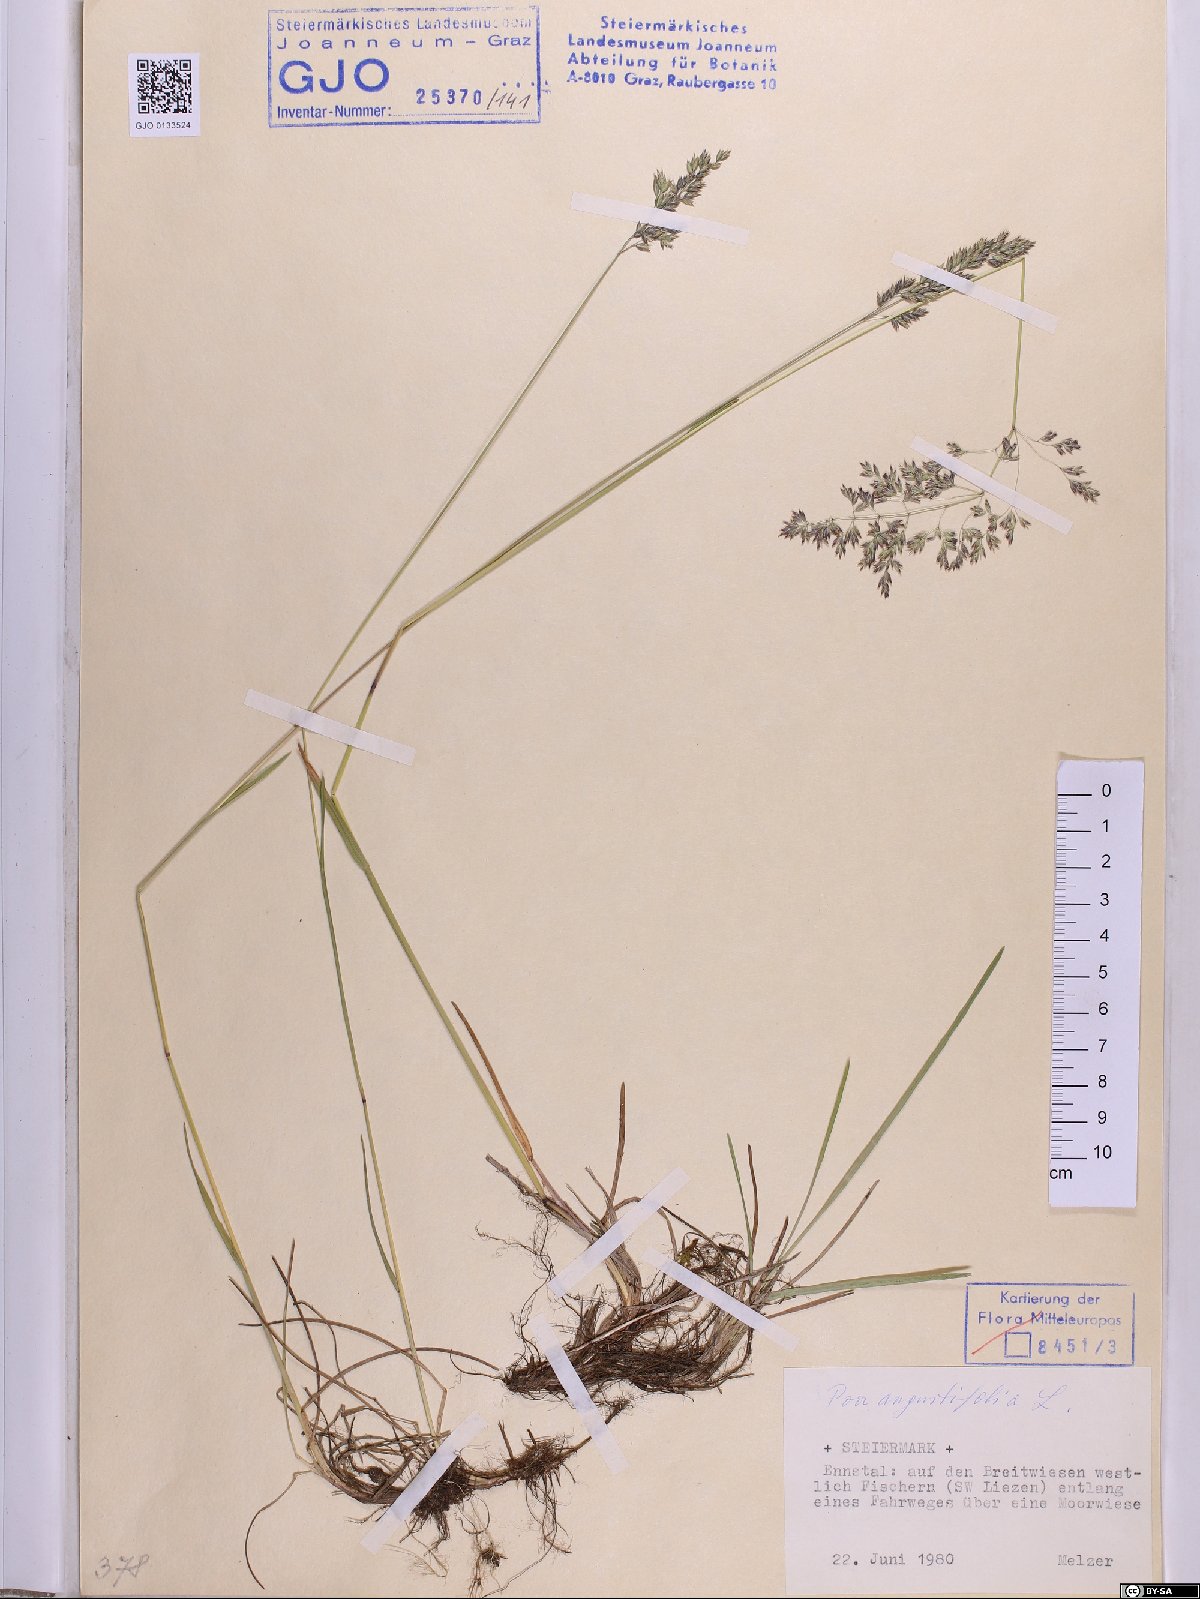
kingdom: Plantae
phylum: Tracheophyta
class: Liliopsida
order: Poales
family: Poaceae
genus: Poa
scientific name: Poa angustifolia
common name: Narrow-leaved meadow-grass
